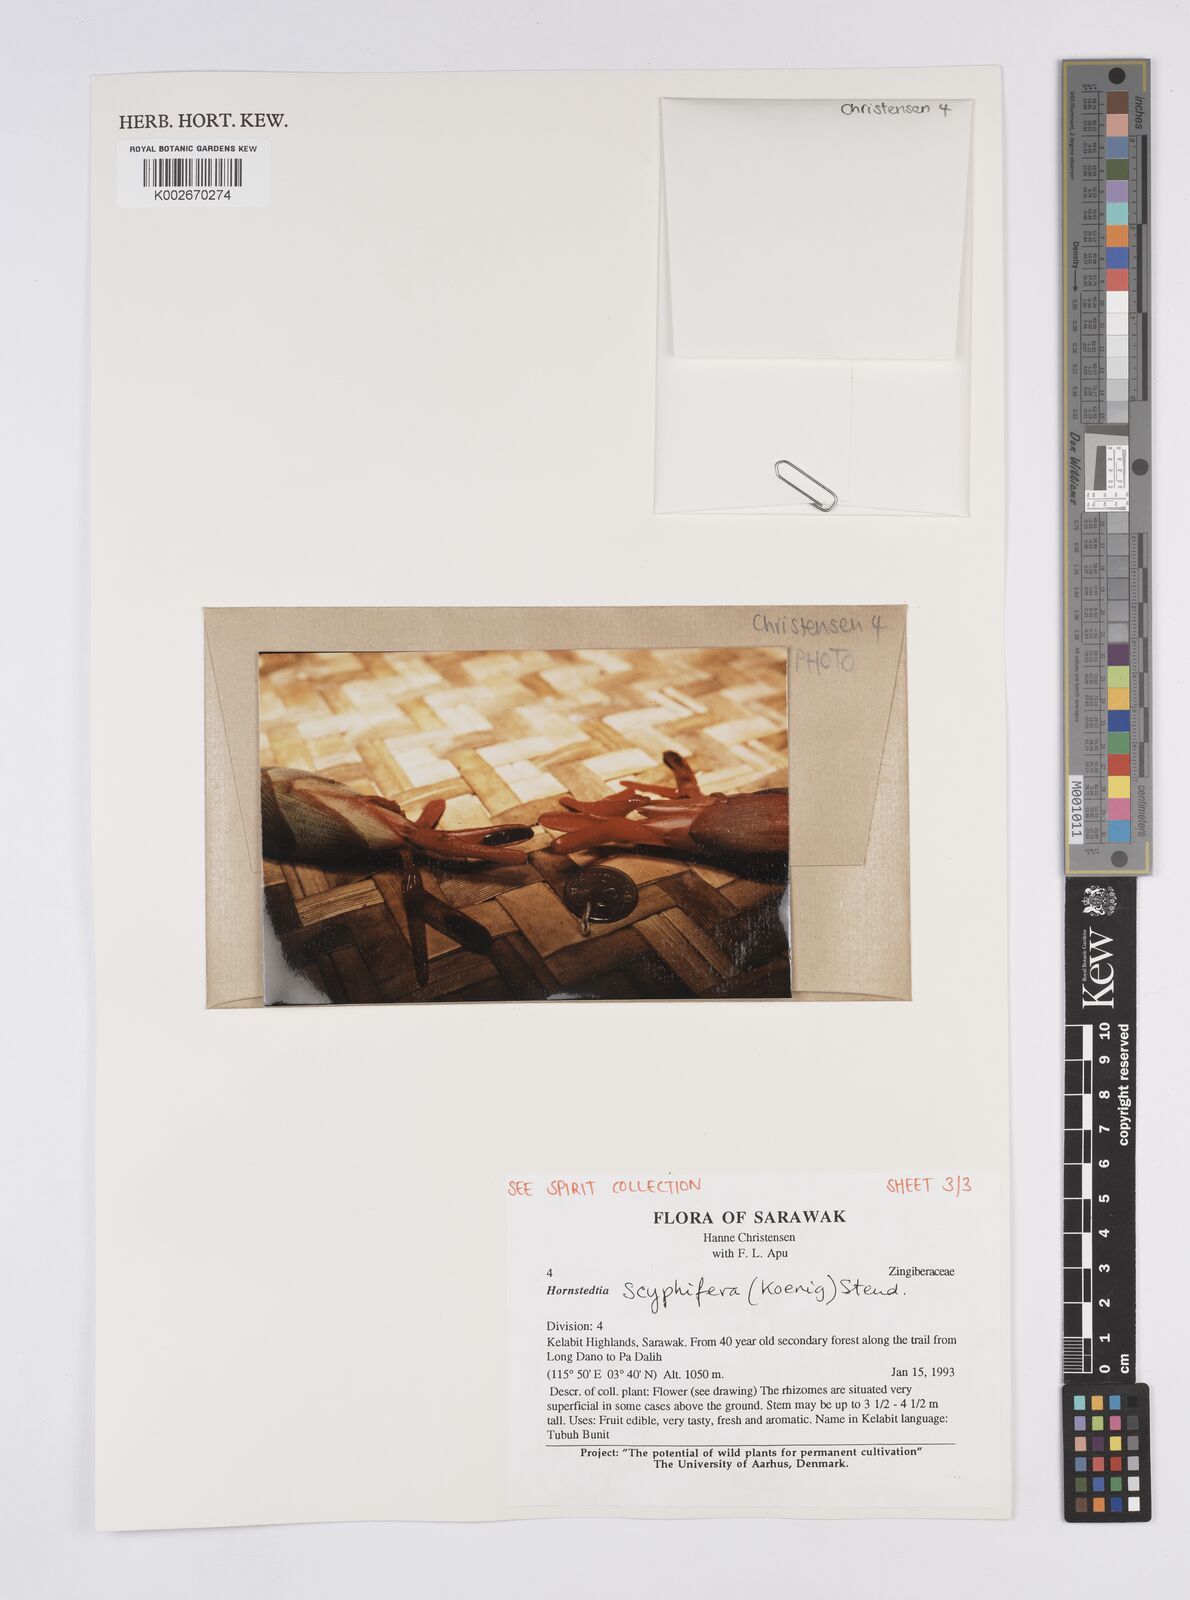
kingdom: Plantae
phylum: Tracheophyta
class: Liliopsida
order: Zingiberales
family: Zingiberaceae
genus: Hornstedtia
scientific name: Hornstedtia scyphifera
